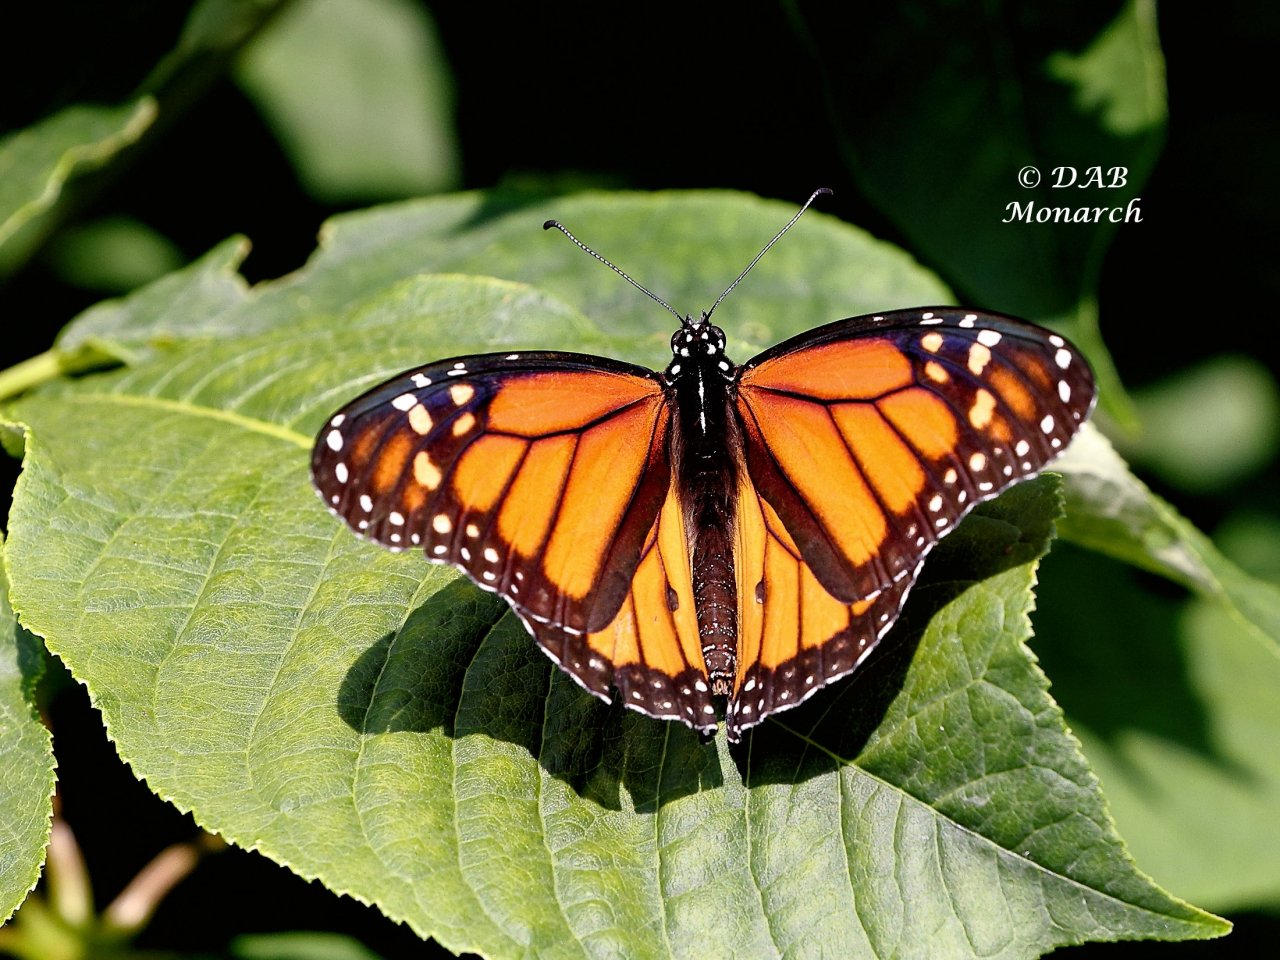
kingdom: Animalia
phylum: Arthropoda
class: Insecta
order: Lepidoptera
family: Nymphalidae
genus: Danaus
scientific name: Danaus plexippus
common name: Monarch
